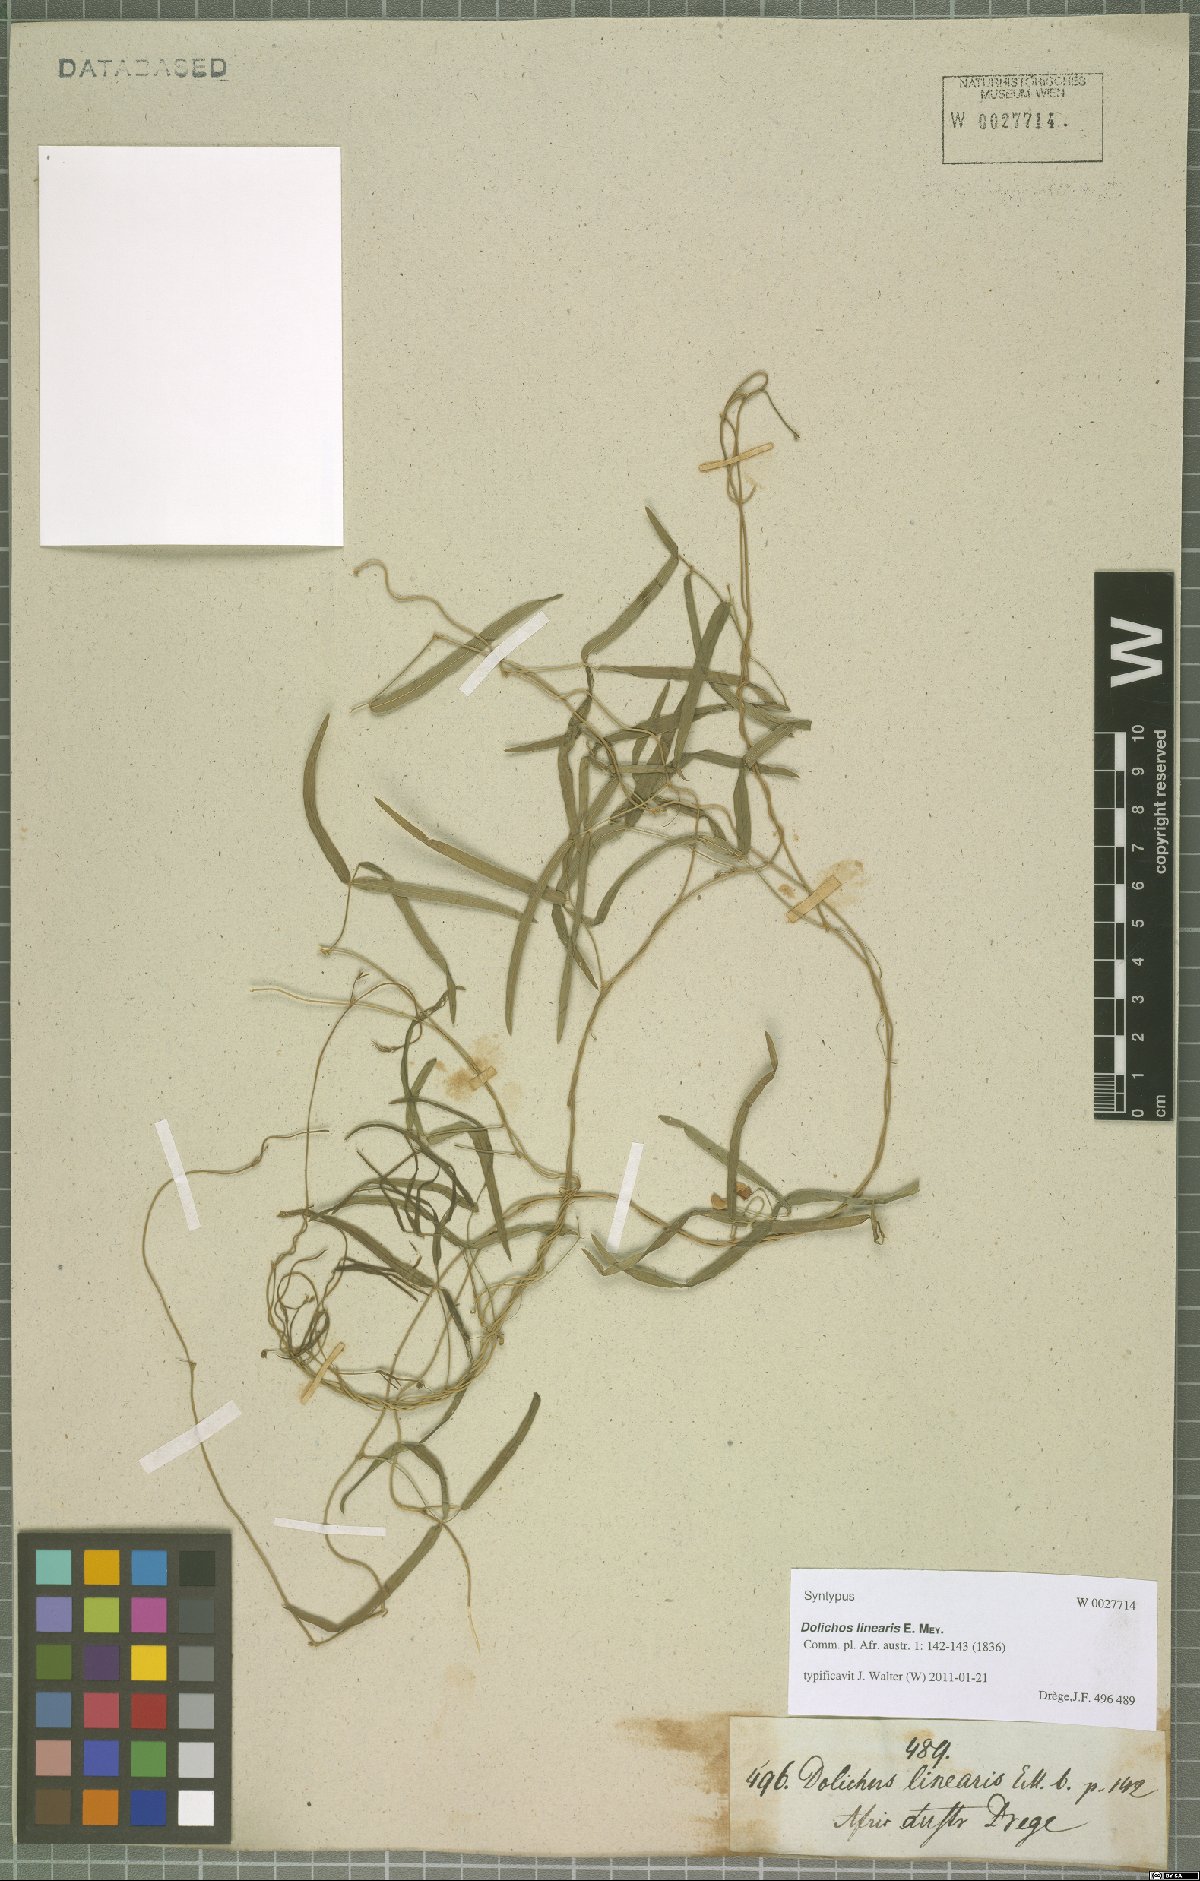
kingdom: Plantae
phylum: Tracheophyta
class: Magnoliopsida
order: Fabales
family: Fabaceae
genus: Dolichos
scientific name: Dolichos linearis
